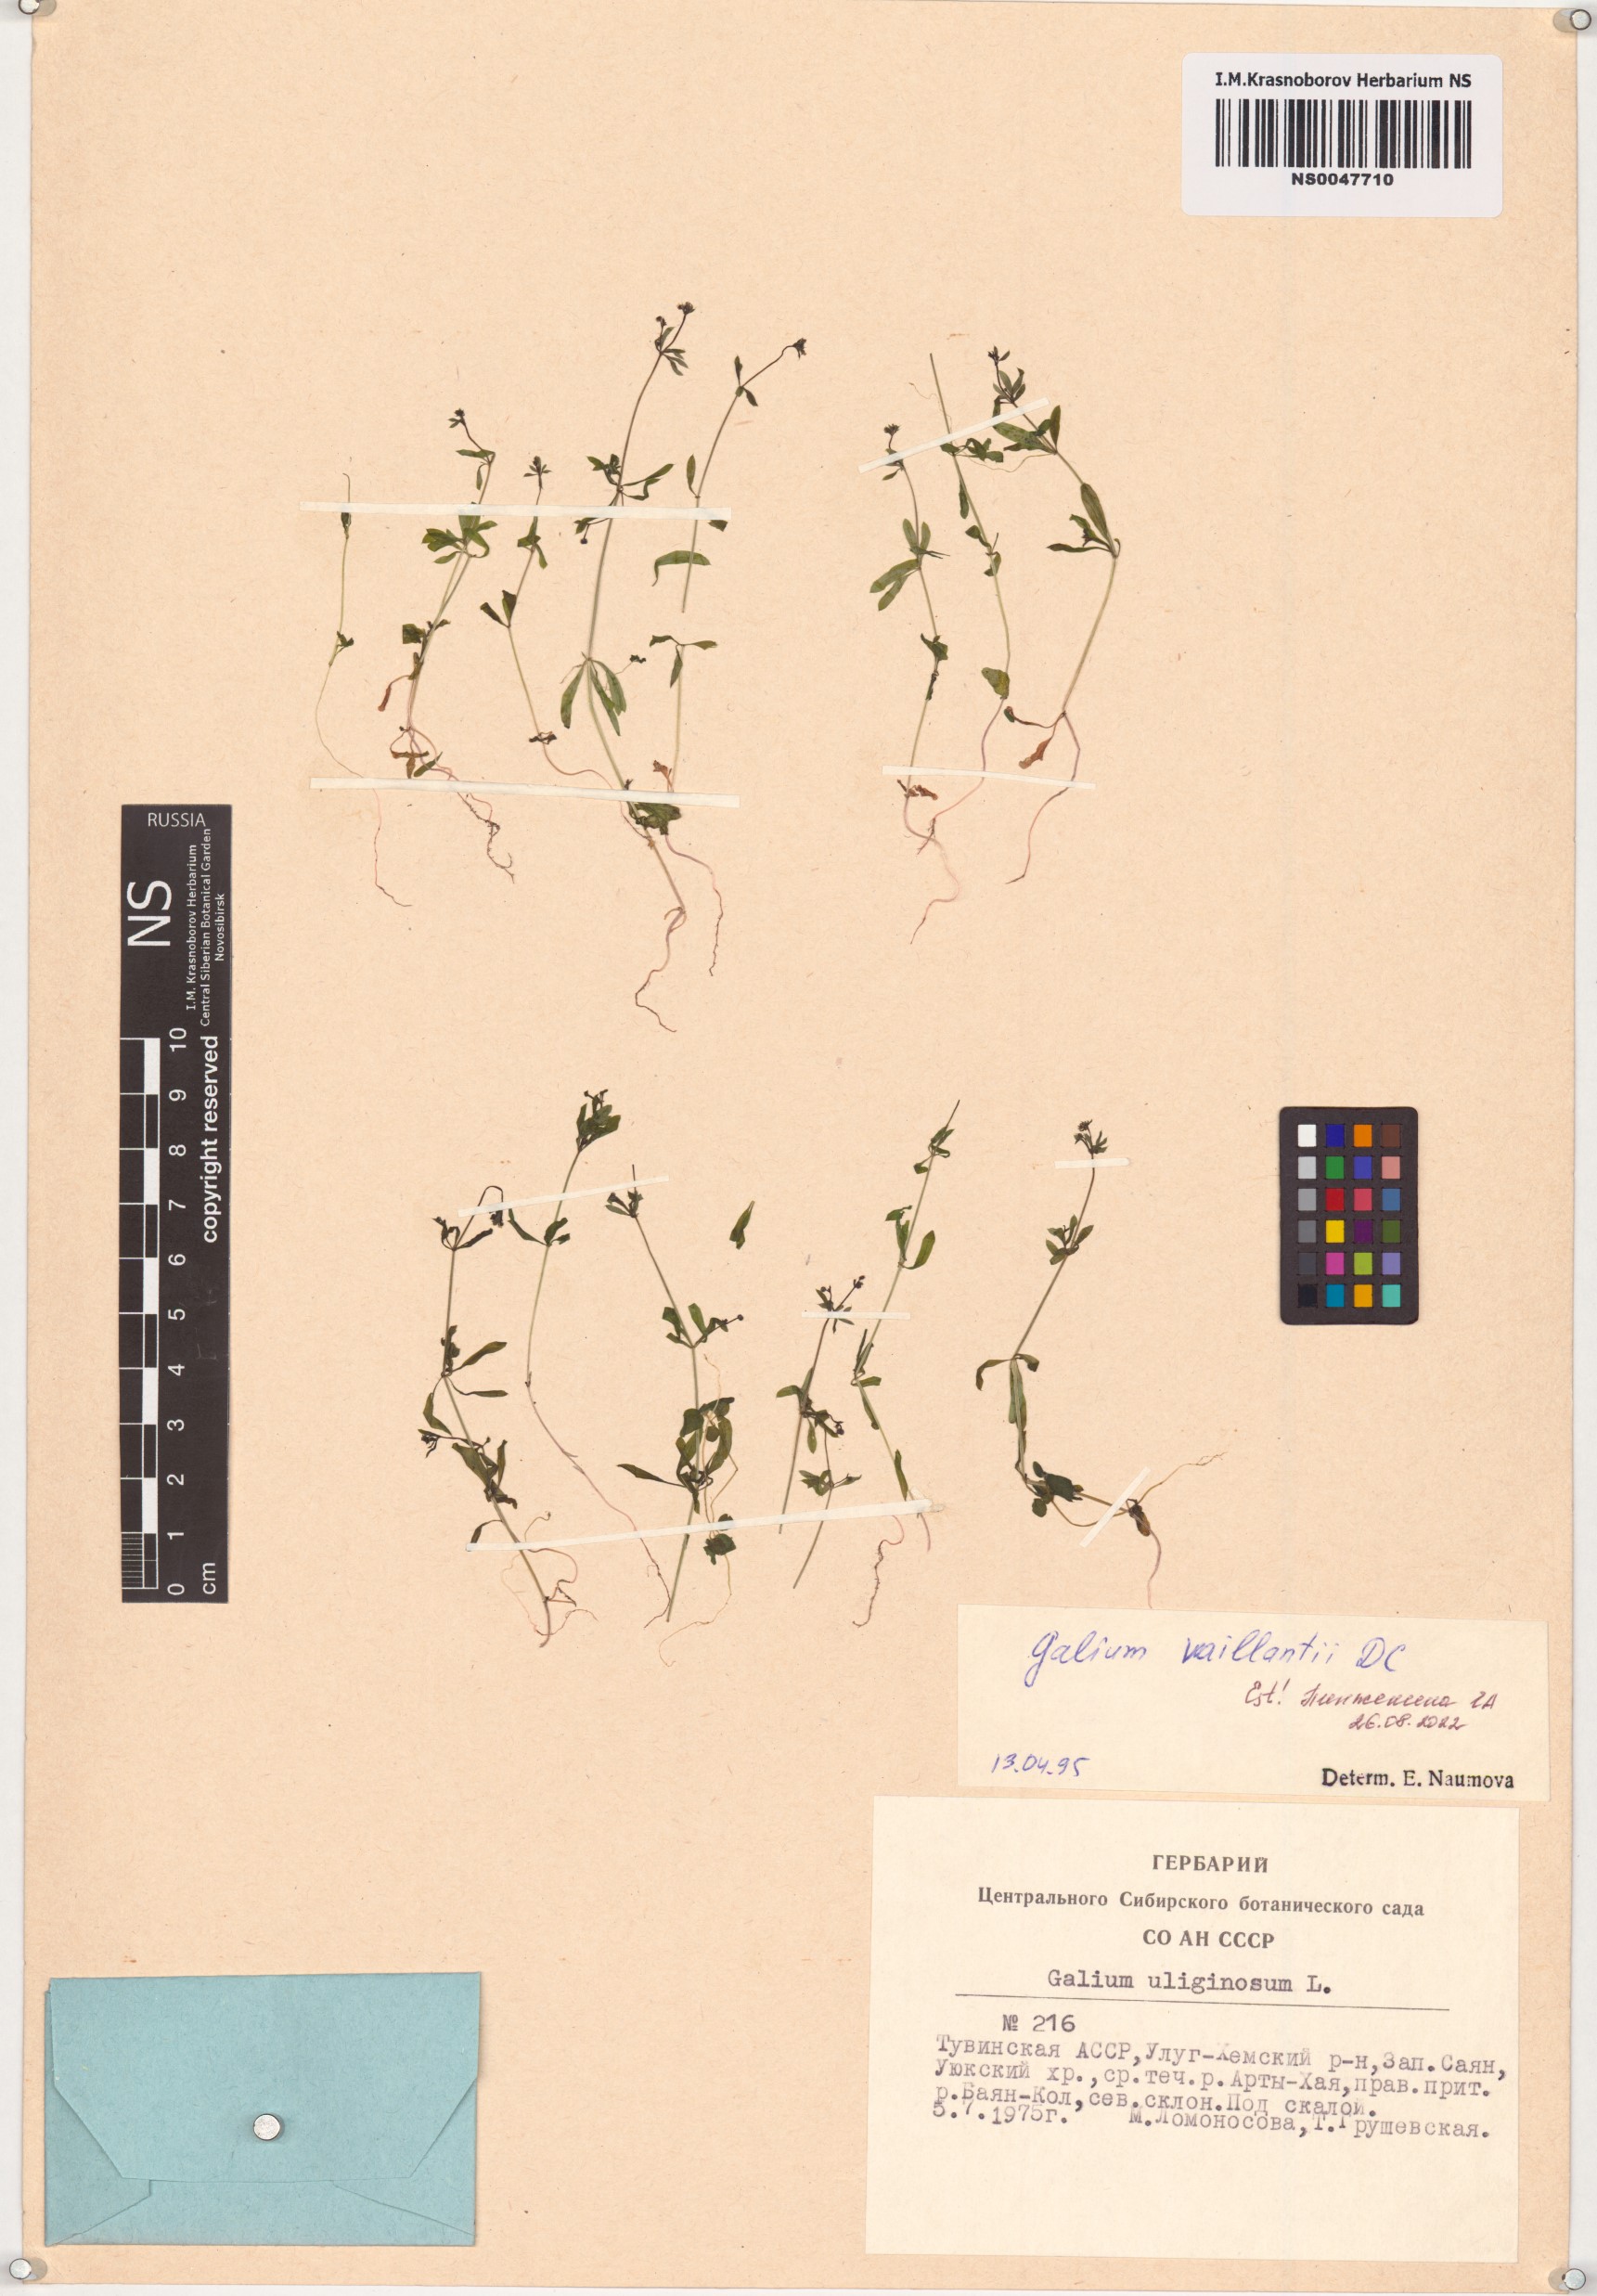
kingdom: Plantae
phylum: Tracheophyta
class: Magnoliopsida
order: Gentianales
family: Rubiaceae
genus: Galium
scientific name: Galium spurium
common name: False cleavers
